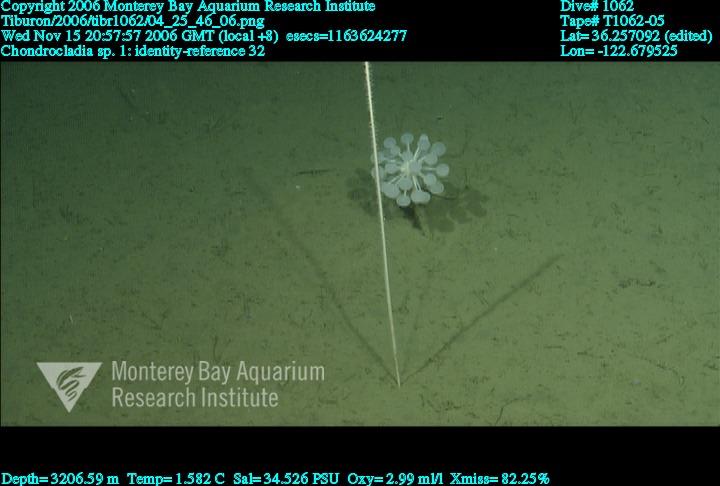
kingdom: Animalia
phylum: Porifera
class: Demospongiae
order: Poecilosclerida
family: Cladorhizidae
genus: Chondrocladia
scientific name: Chondrocladia
